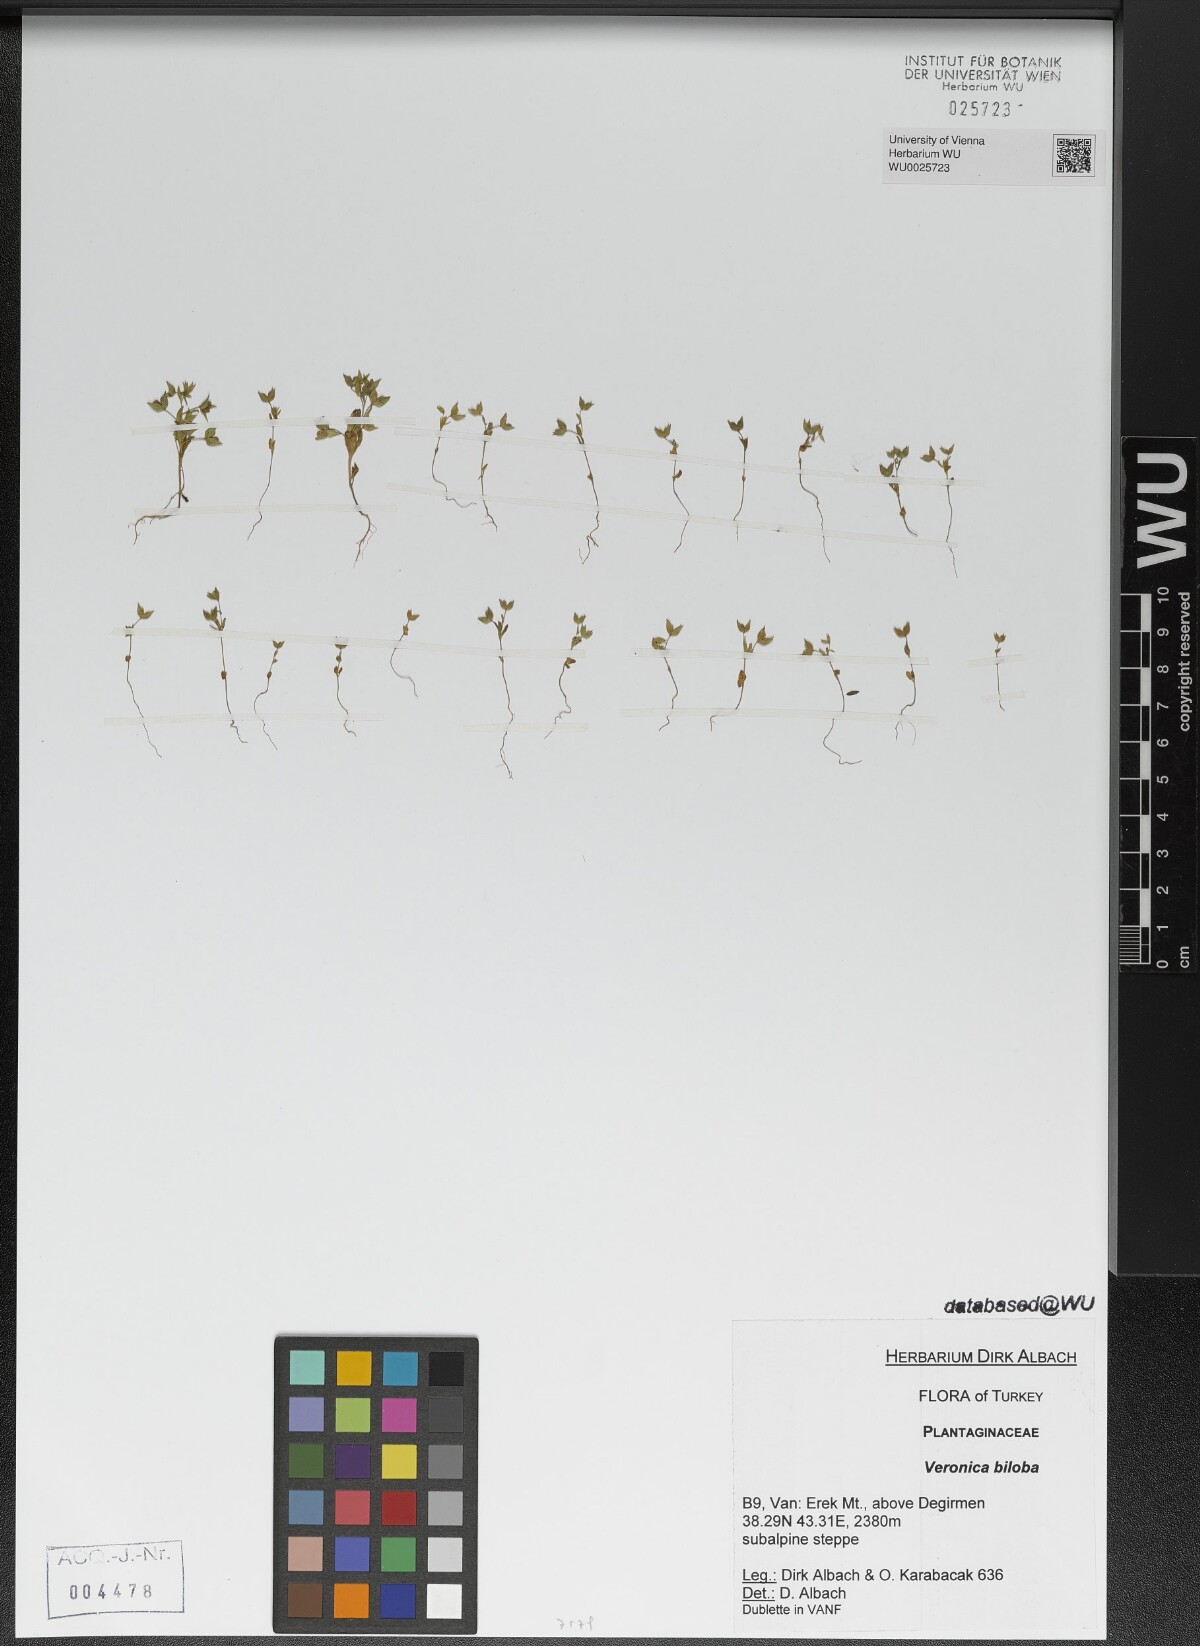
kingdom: Plantae
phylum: Tracheophyta
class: Magnoliopsida
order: Lamiales
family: Plantaginaceae
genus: Veronica
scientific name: Veronica biloba
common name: Twolobe speedwell
